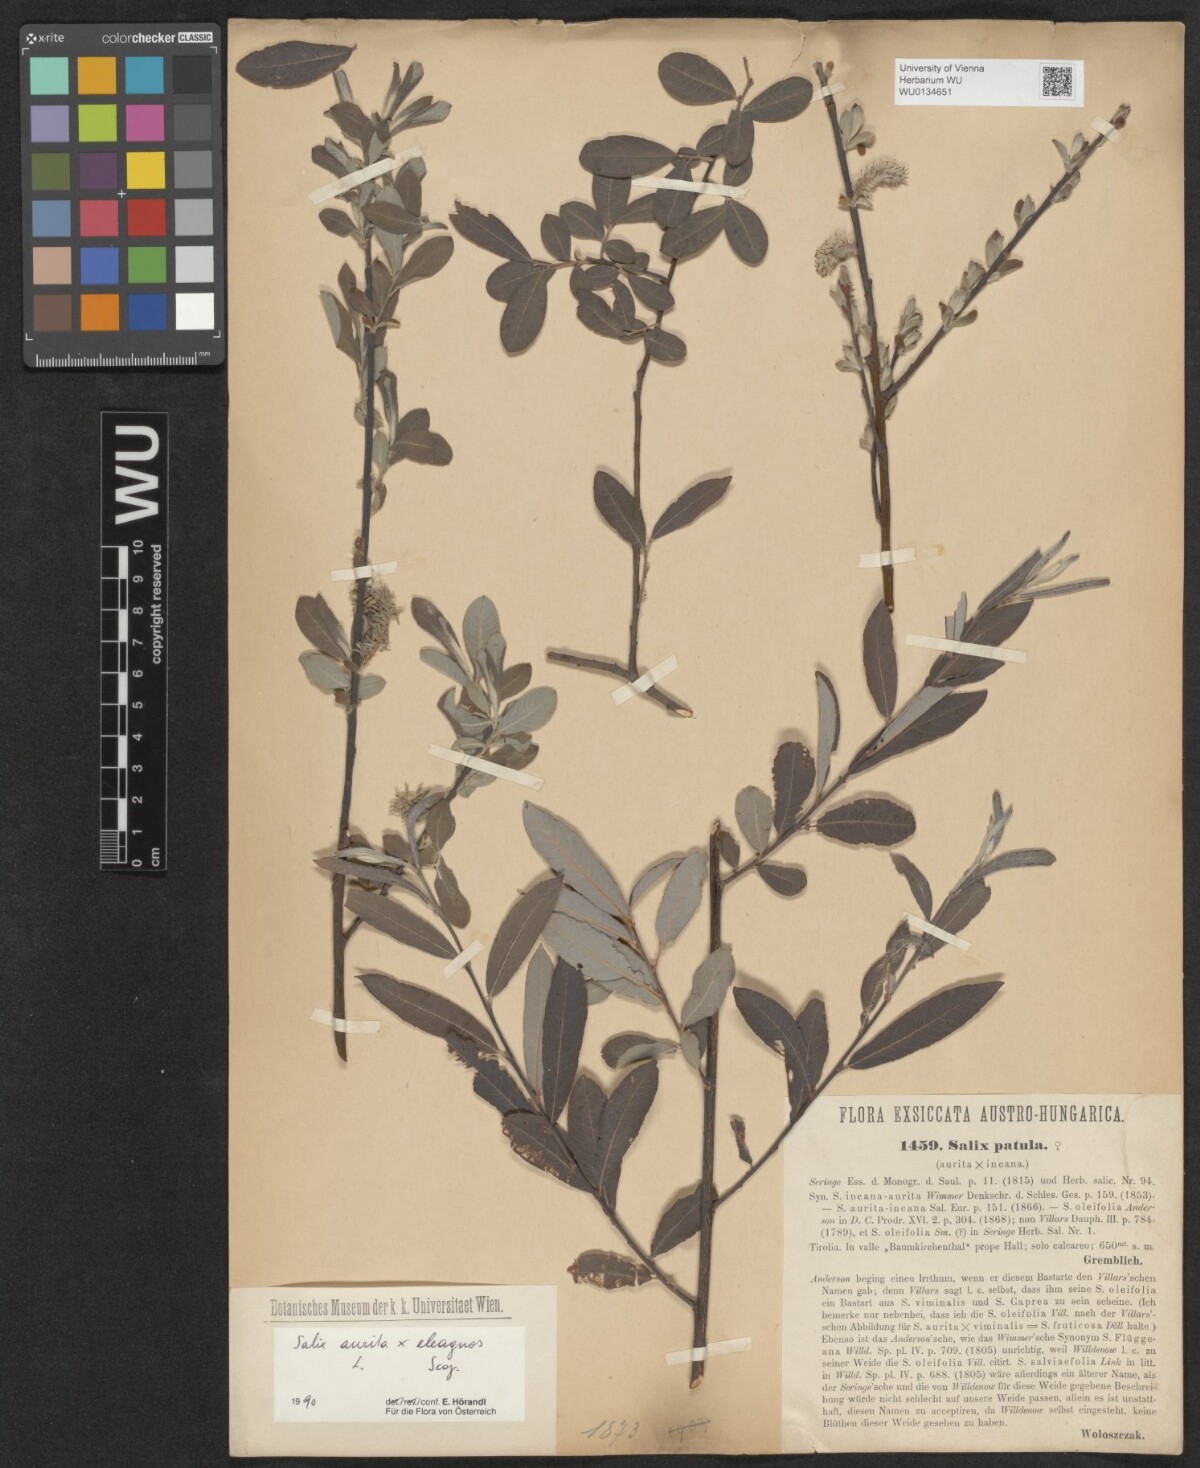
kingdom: Plantae
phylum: Tracheophyta
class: Magnoliopsida
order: Malpighiales
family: Salicaceae
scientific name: Salicaceae
